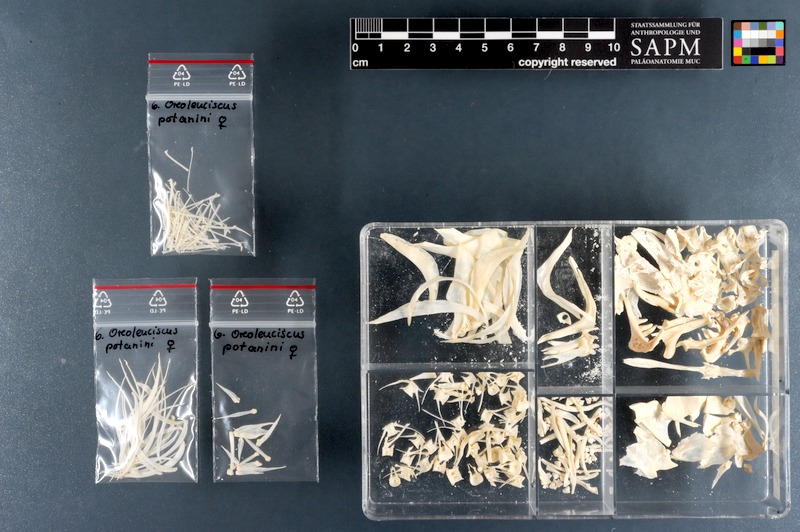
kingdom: Animalia
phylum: Chordata
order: Cypriniformes
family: Cyprinidae
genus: Oreoleuciscus
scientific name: Oreoleuciscus potanini
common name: Altai osman
